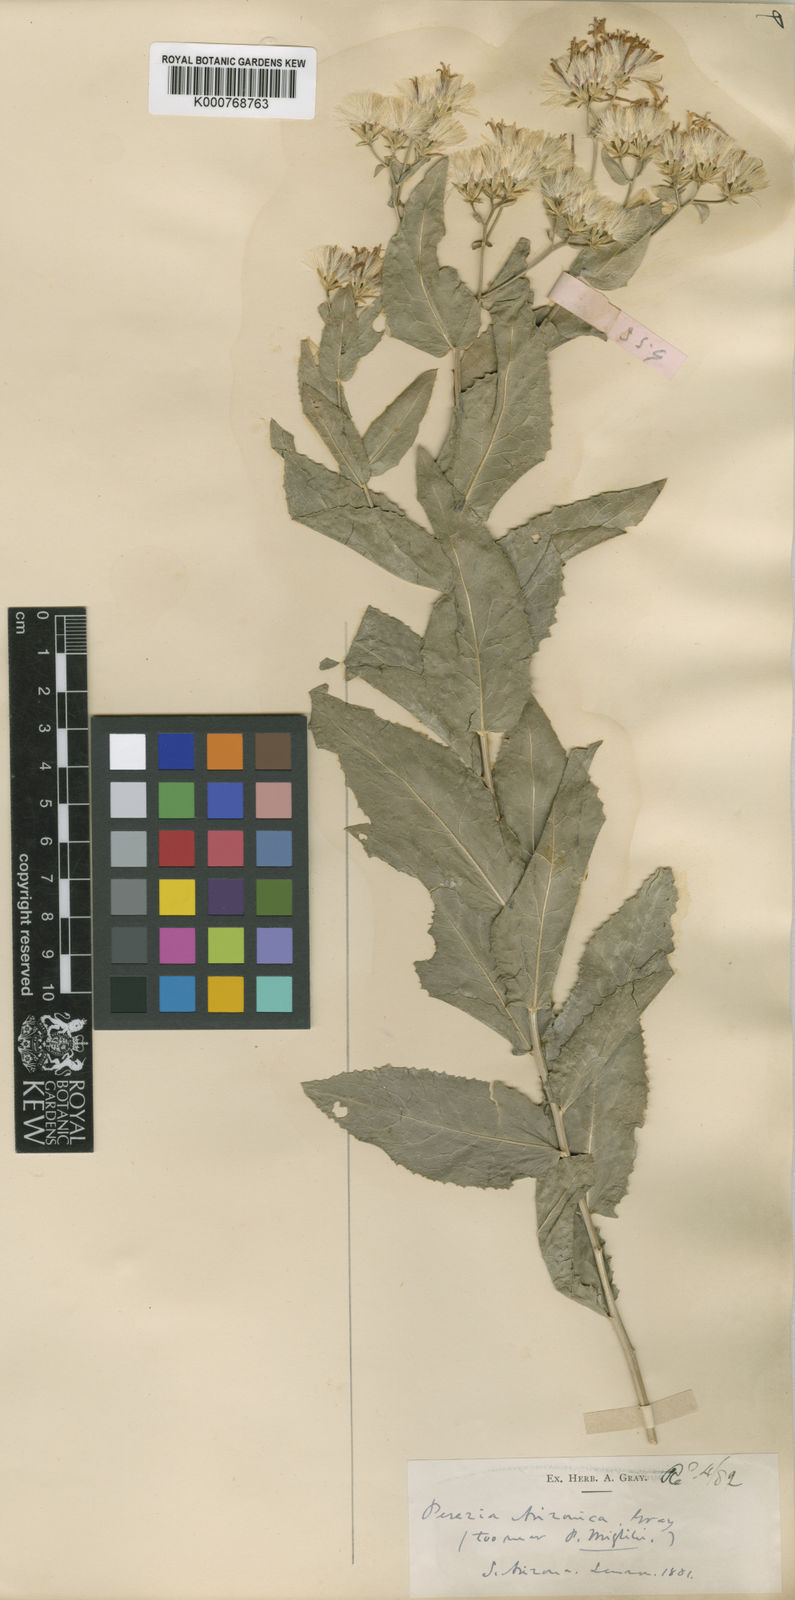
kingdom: Plantae
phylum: Tracheophyta
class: Magnoliopsida
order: Asterales
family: Asteraceae
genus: Acourtia
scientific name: Acourtia wrightii
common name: Brownfoot
